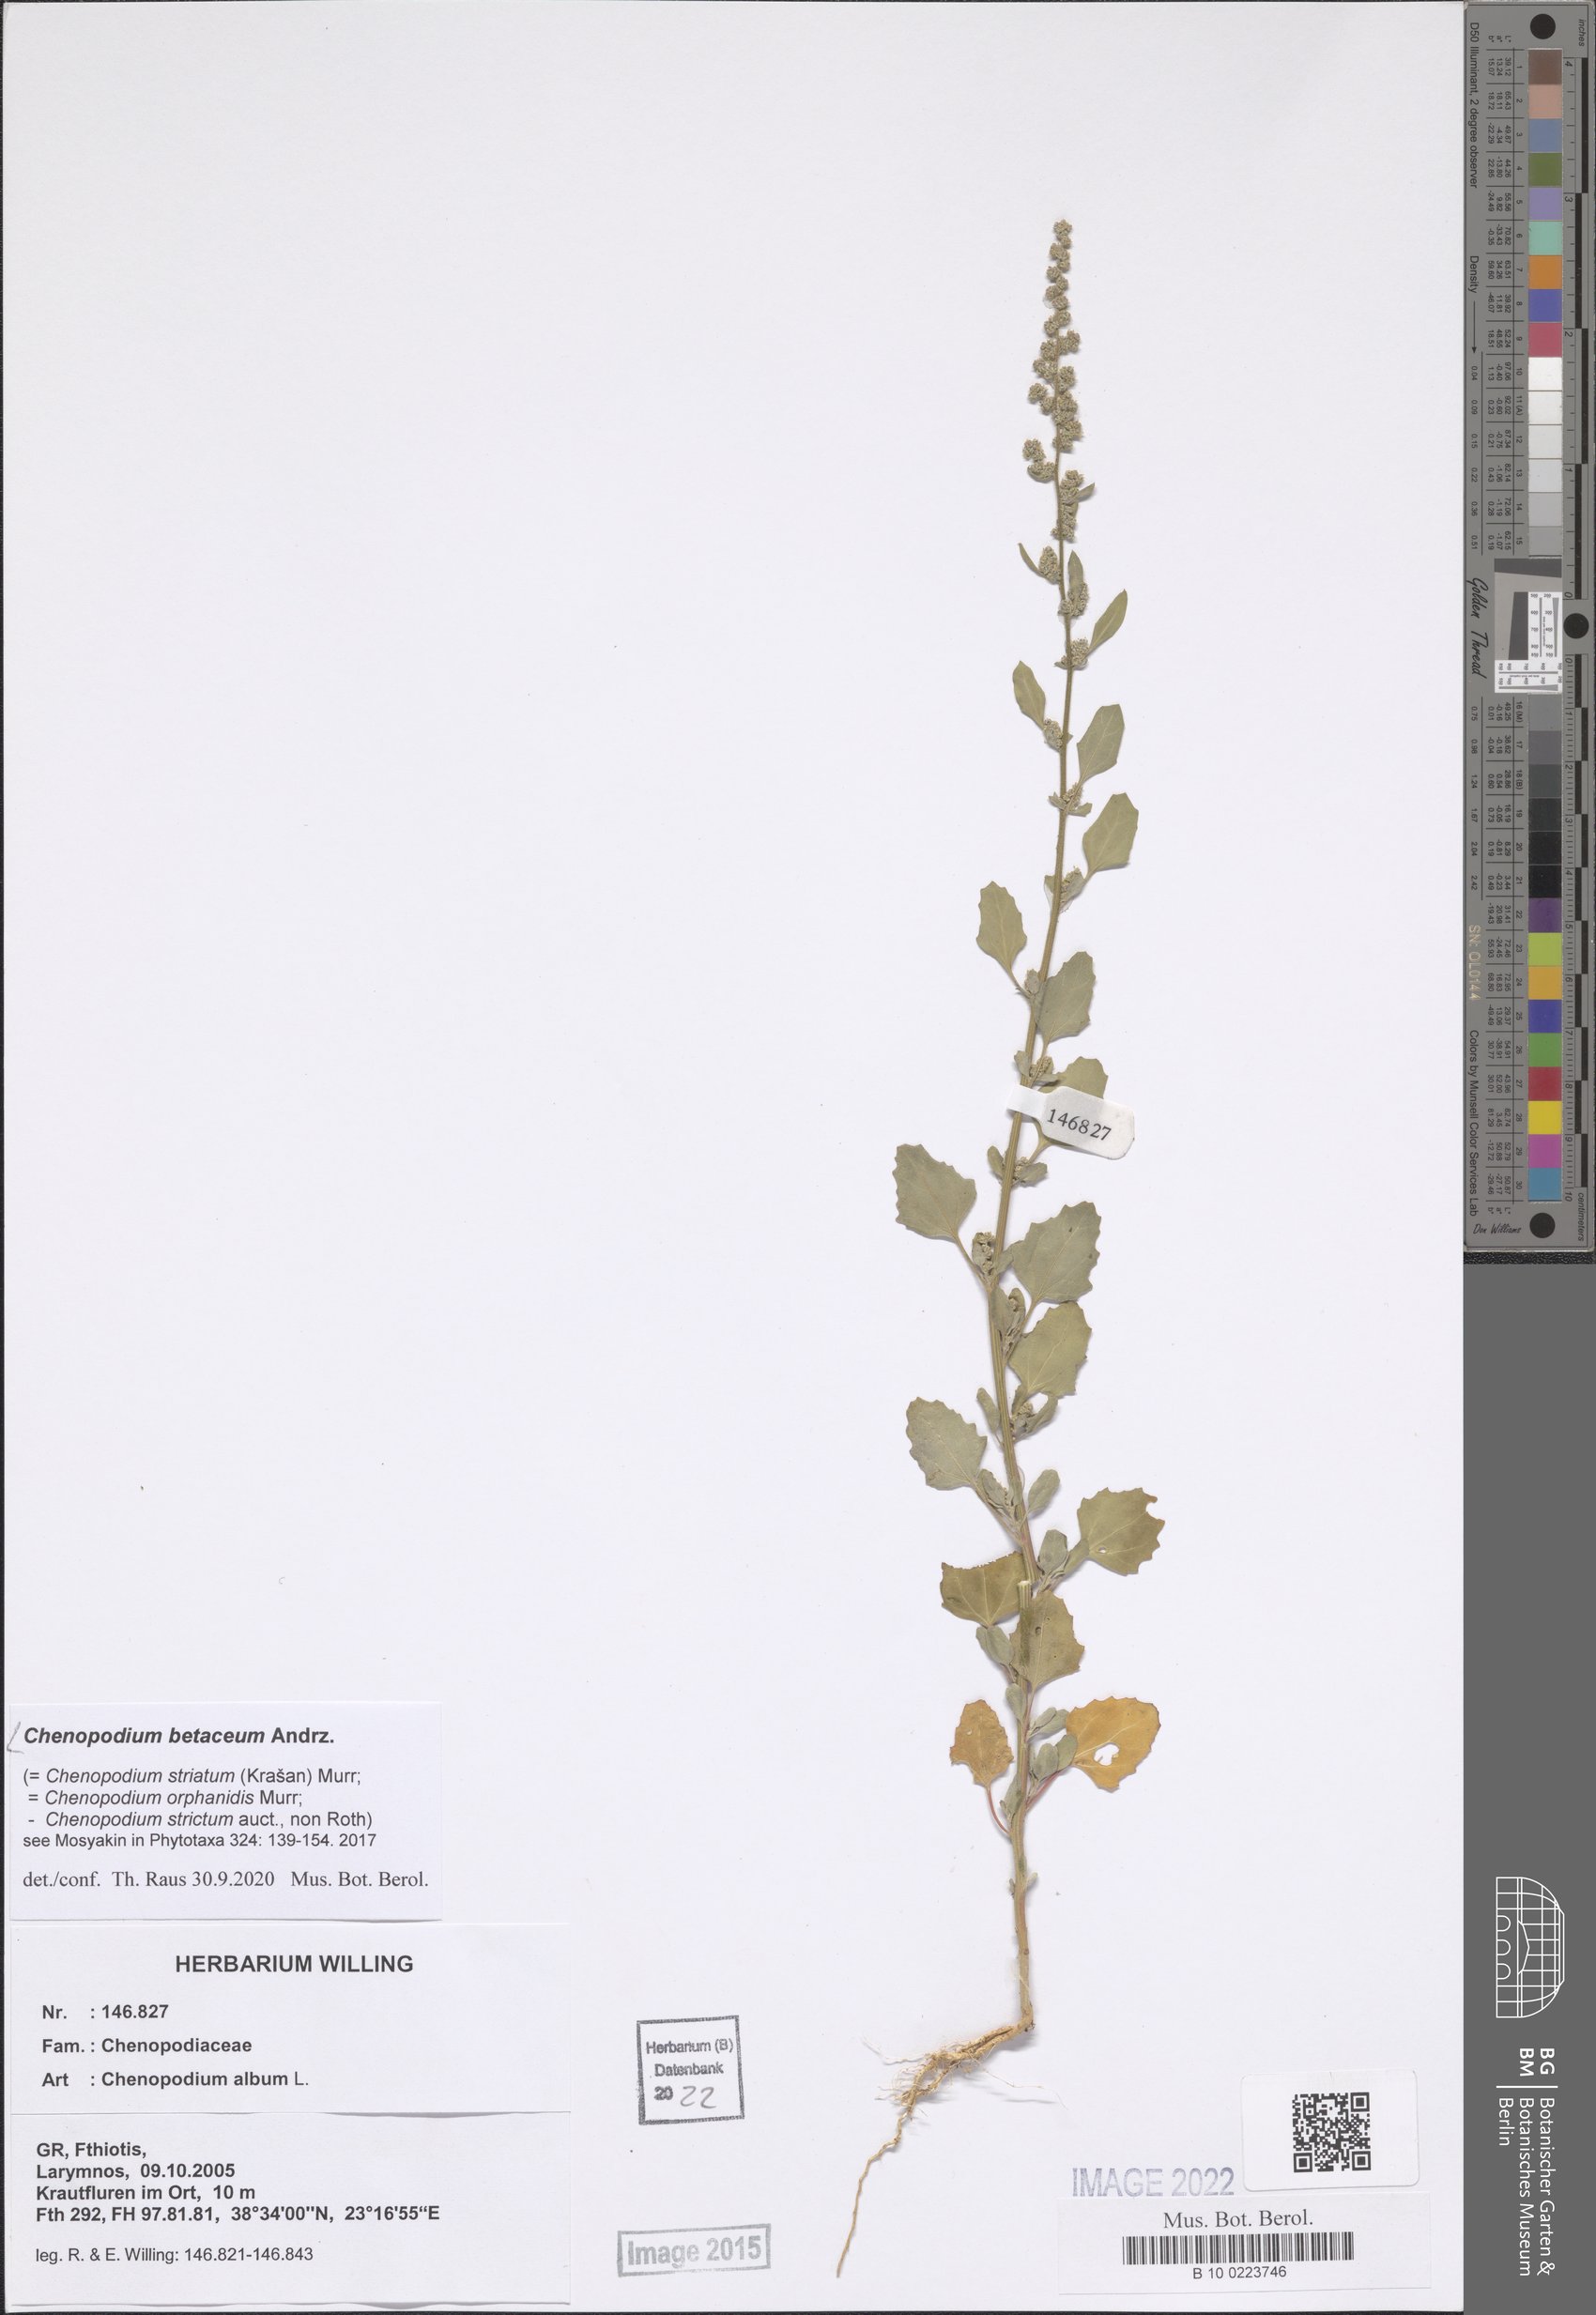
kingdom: Plantae
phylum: Tracheophyta
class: Magnoliopsida
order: Caryophyllales
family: Amaranthaceae
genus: Chenopodium
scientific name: Chenopodium betaceum
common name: Striped goosefoot
